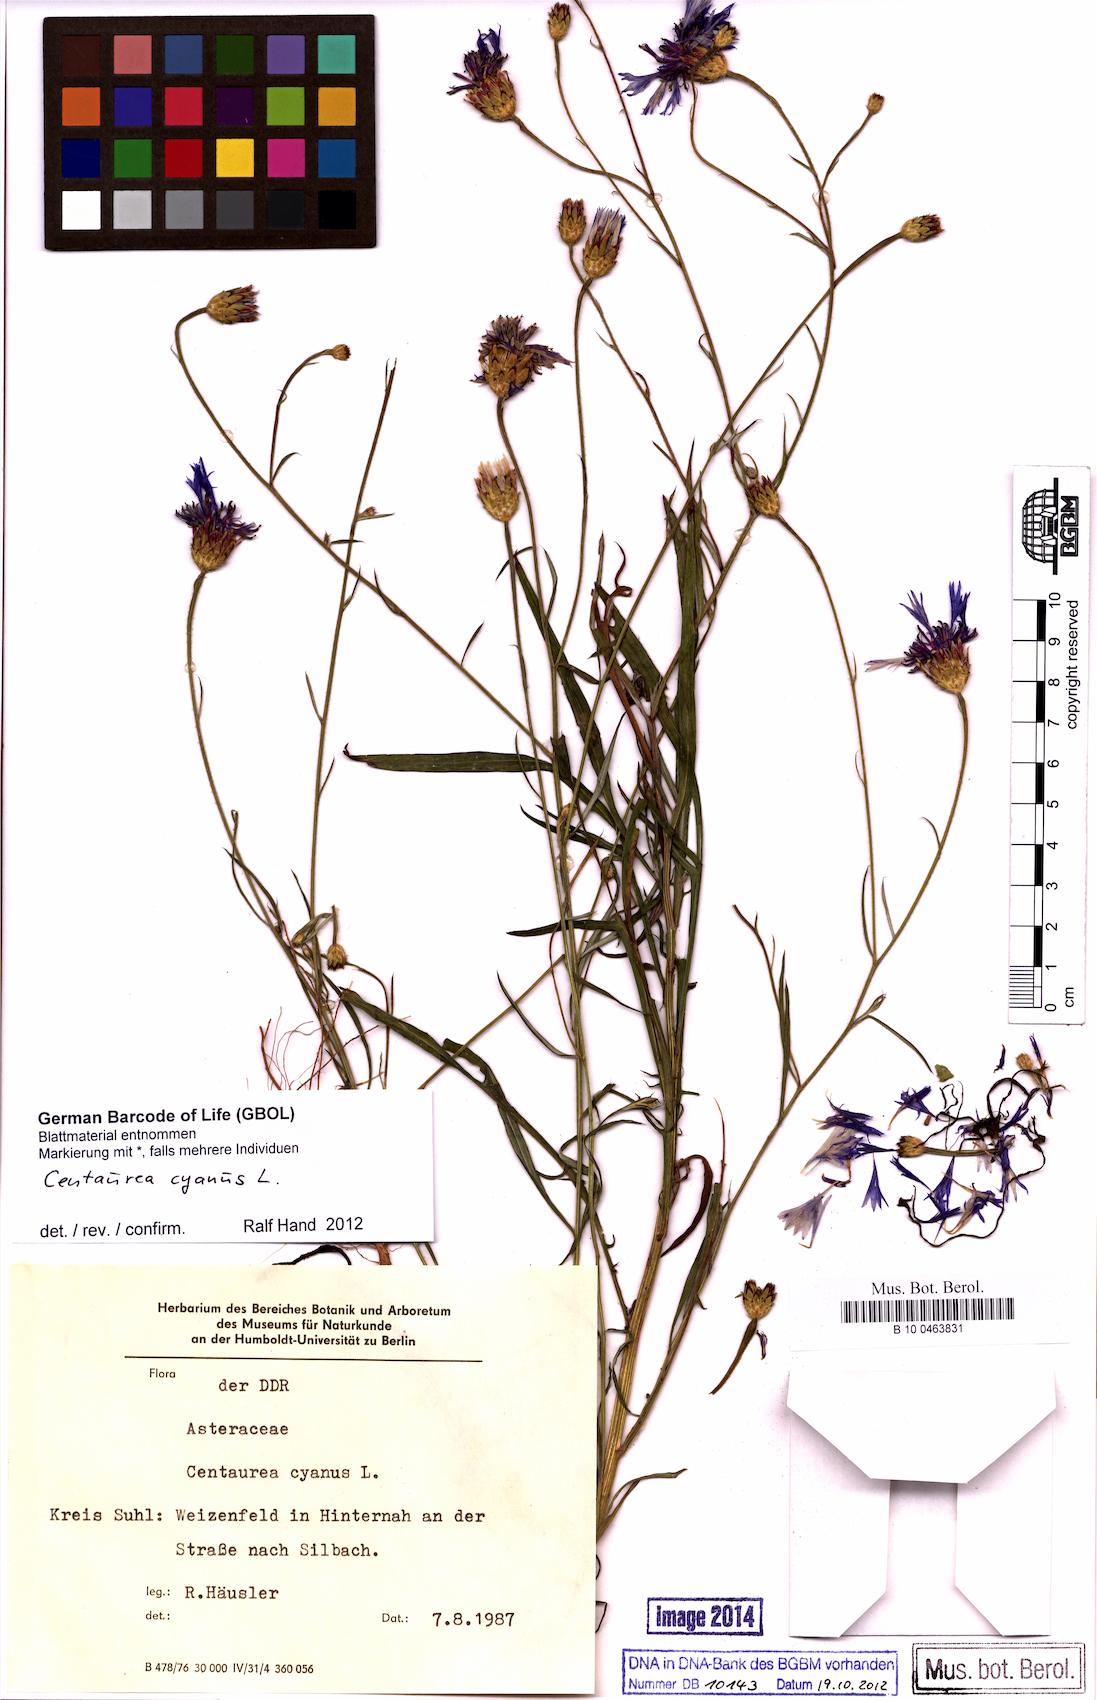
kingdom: Plantae
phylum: Tracheophyta
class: Magnoliopsida
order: Asterales
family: Asteraceae
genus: Centaurea
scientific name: Centaurea cyanus
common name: Cornflower
